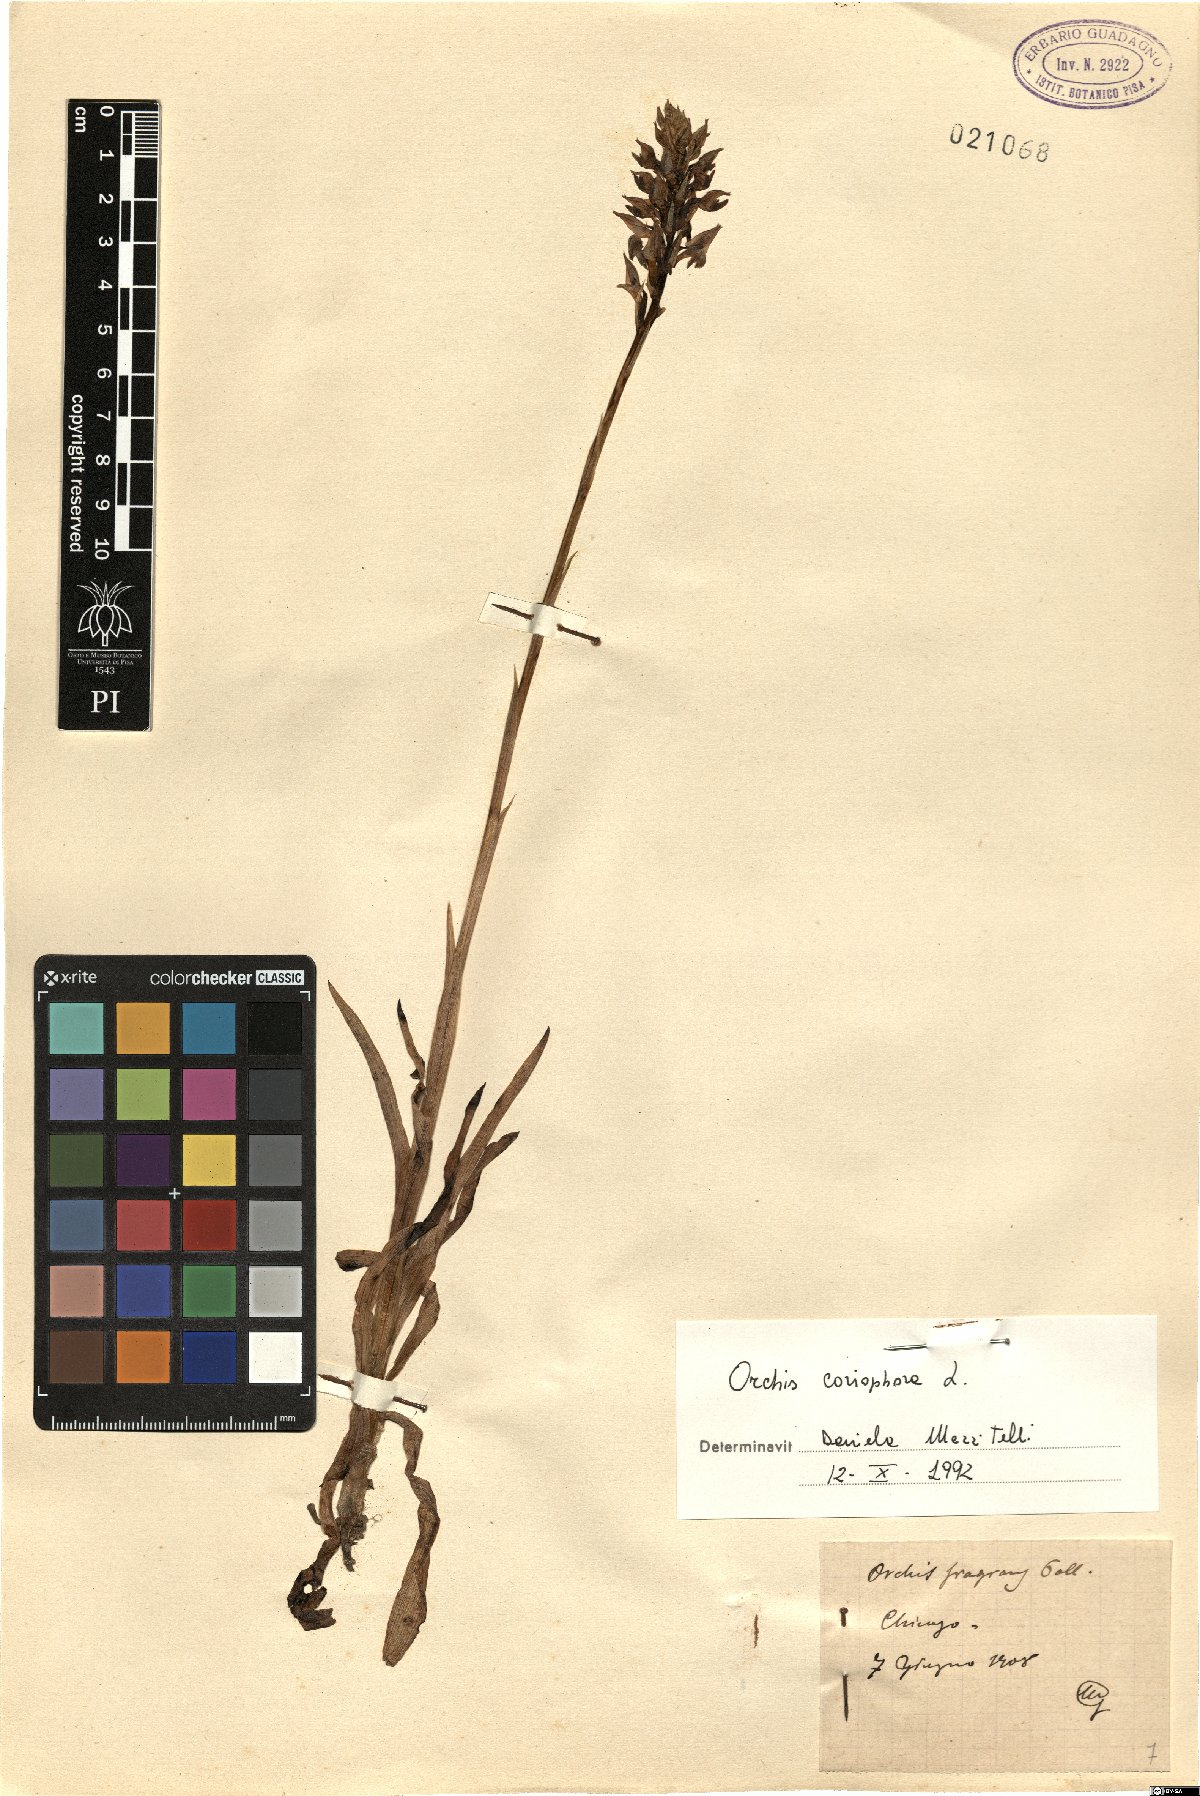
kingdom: Plantae
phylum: Tracheophyta
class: Liliopsida
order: Asparagales
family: Orchidaceae
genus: Anacamptis
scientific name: Anacamptis coriophora
